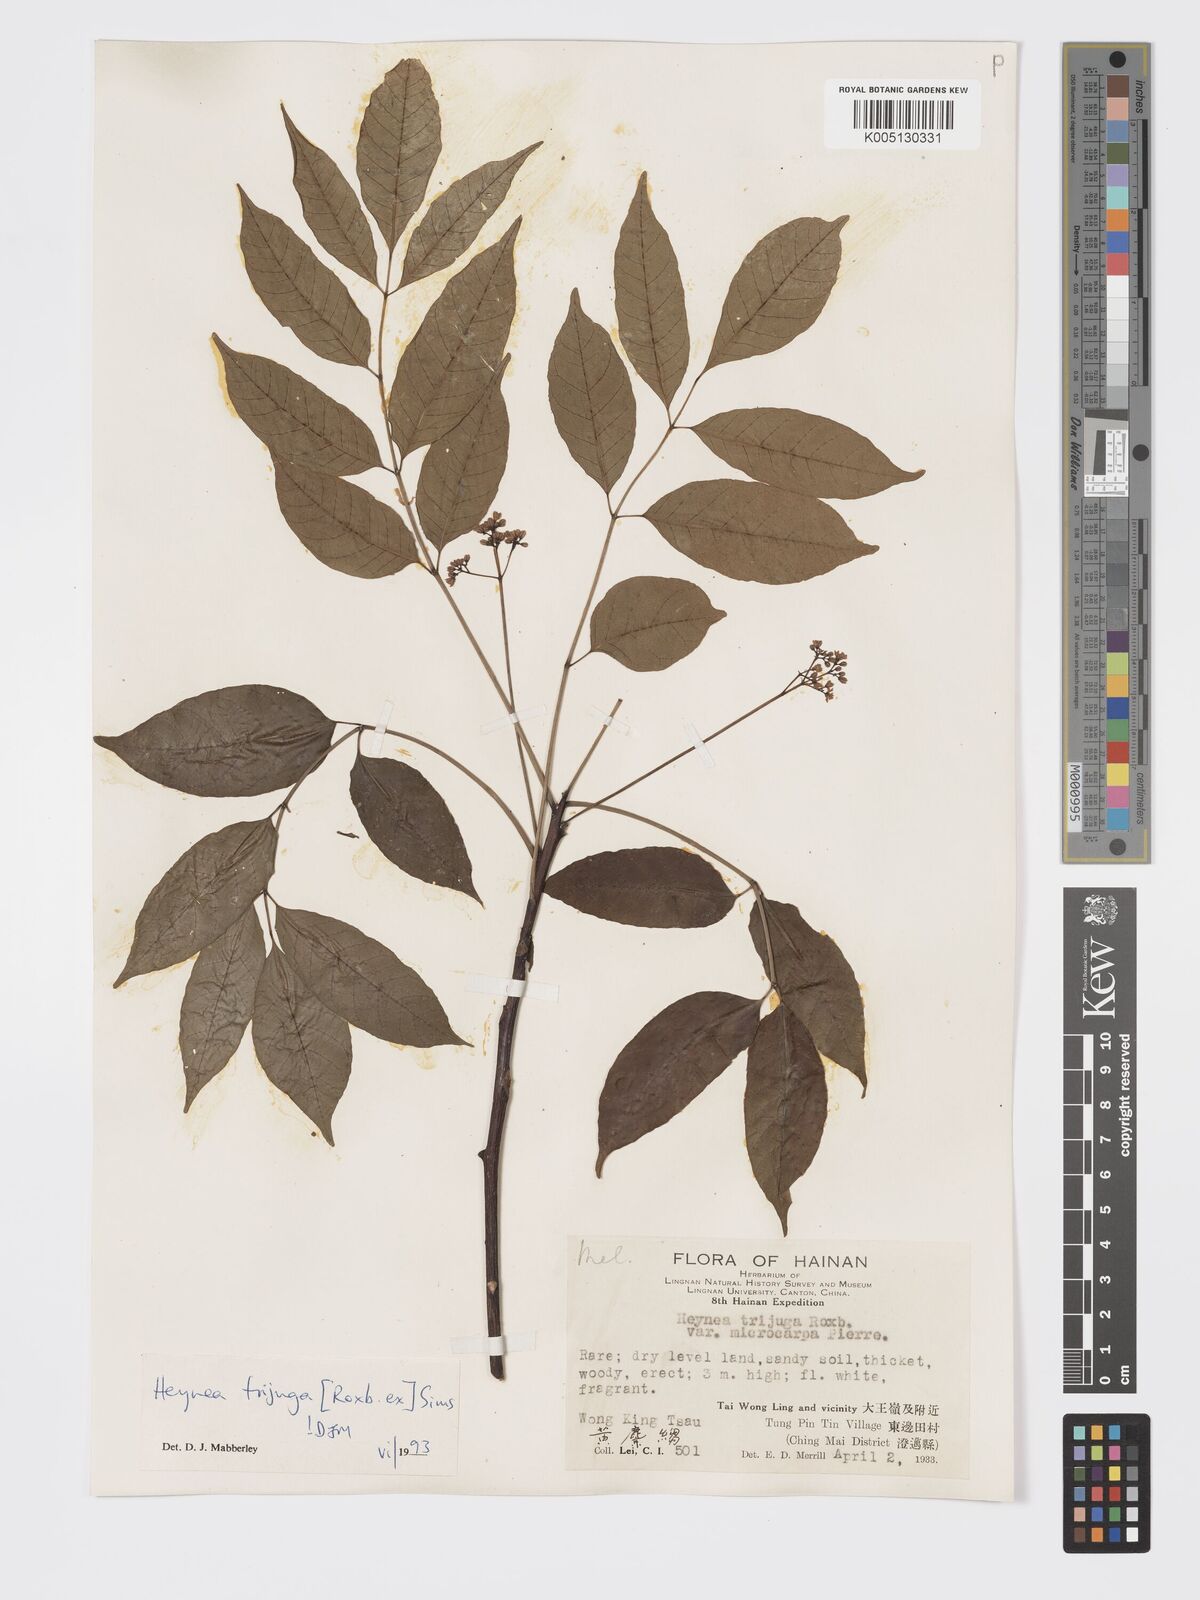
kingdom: Plantae
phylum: Tracheophyta
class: Magnoliopsida
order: Sapindales
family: Meliaceae
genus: Heynea
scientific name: Heynea trijuga
